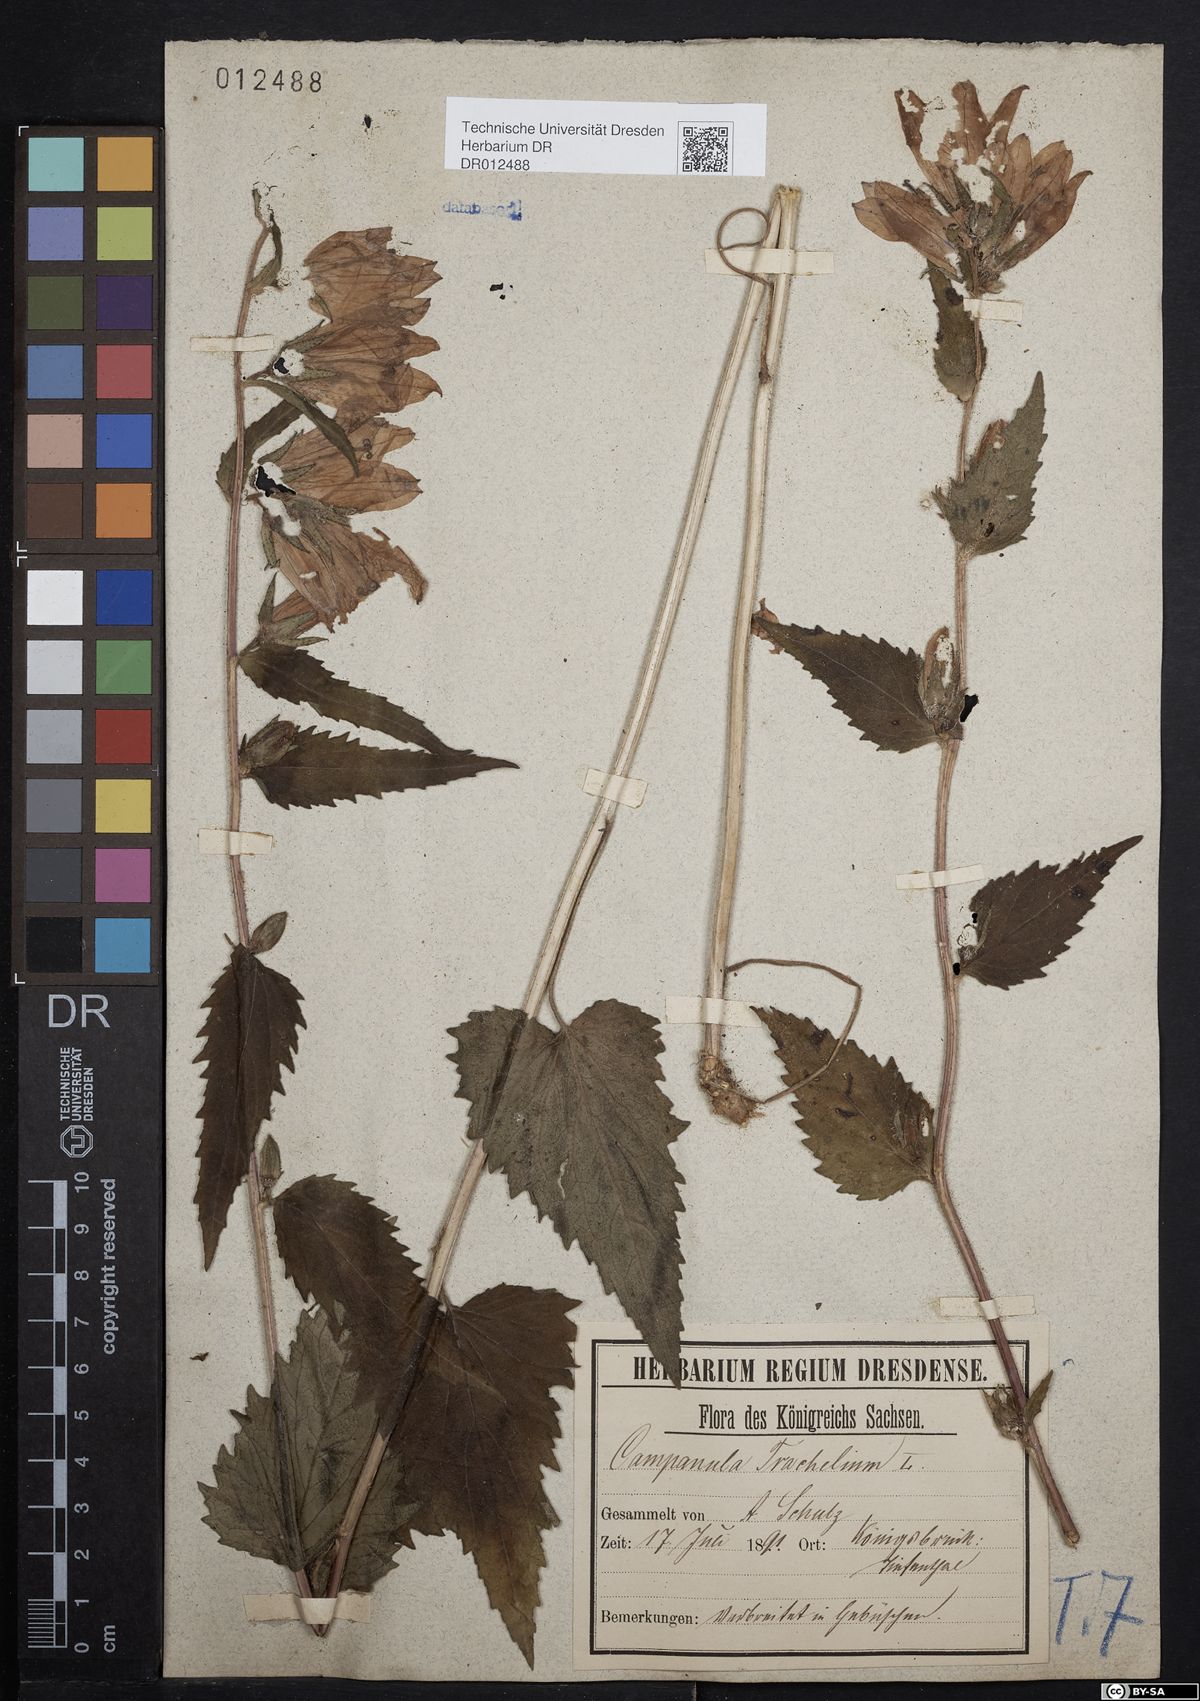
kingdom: Plantae
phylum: Tracheophyta
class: Magnoliopsida
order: Asterales
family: Campanulaceae
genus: Campanula
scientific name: Campanula trachelium
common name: Nettle-leaved bellflower
